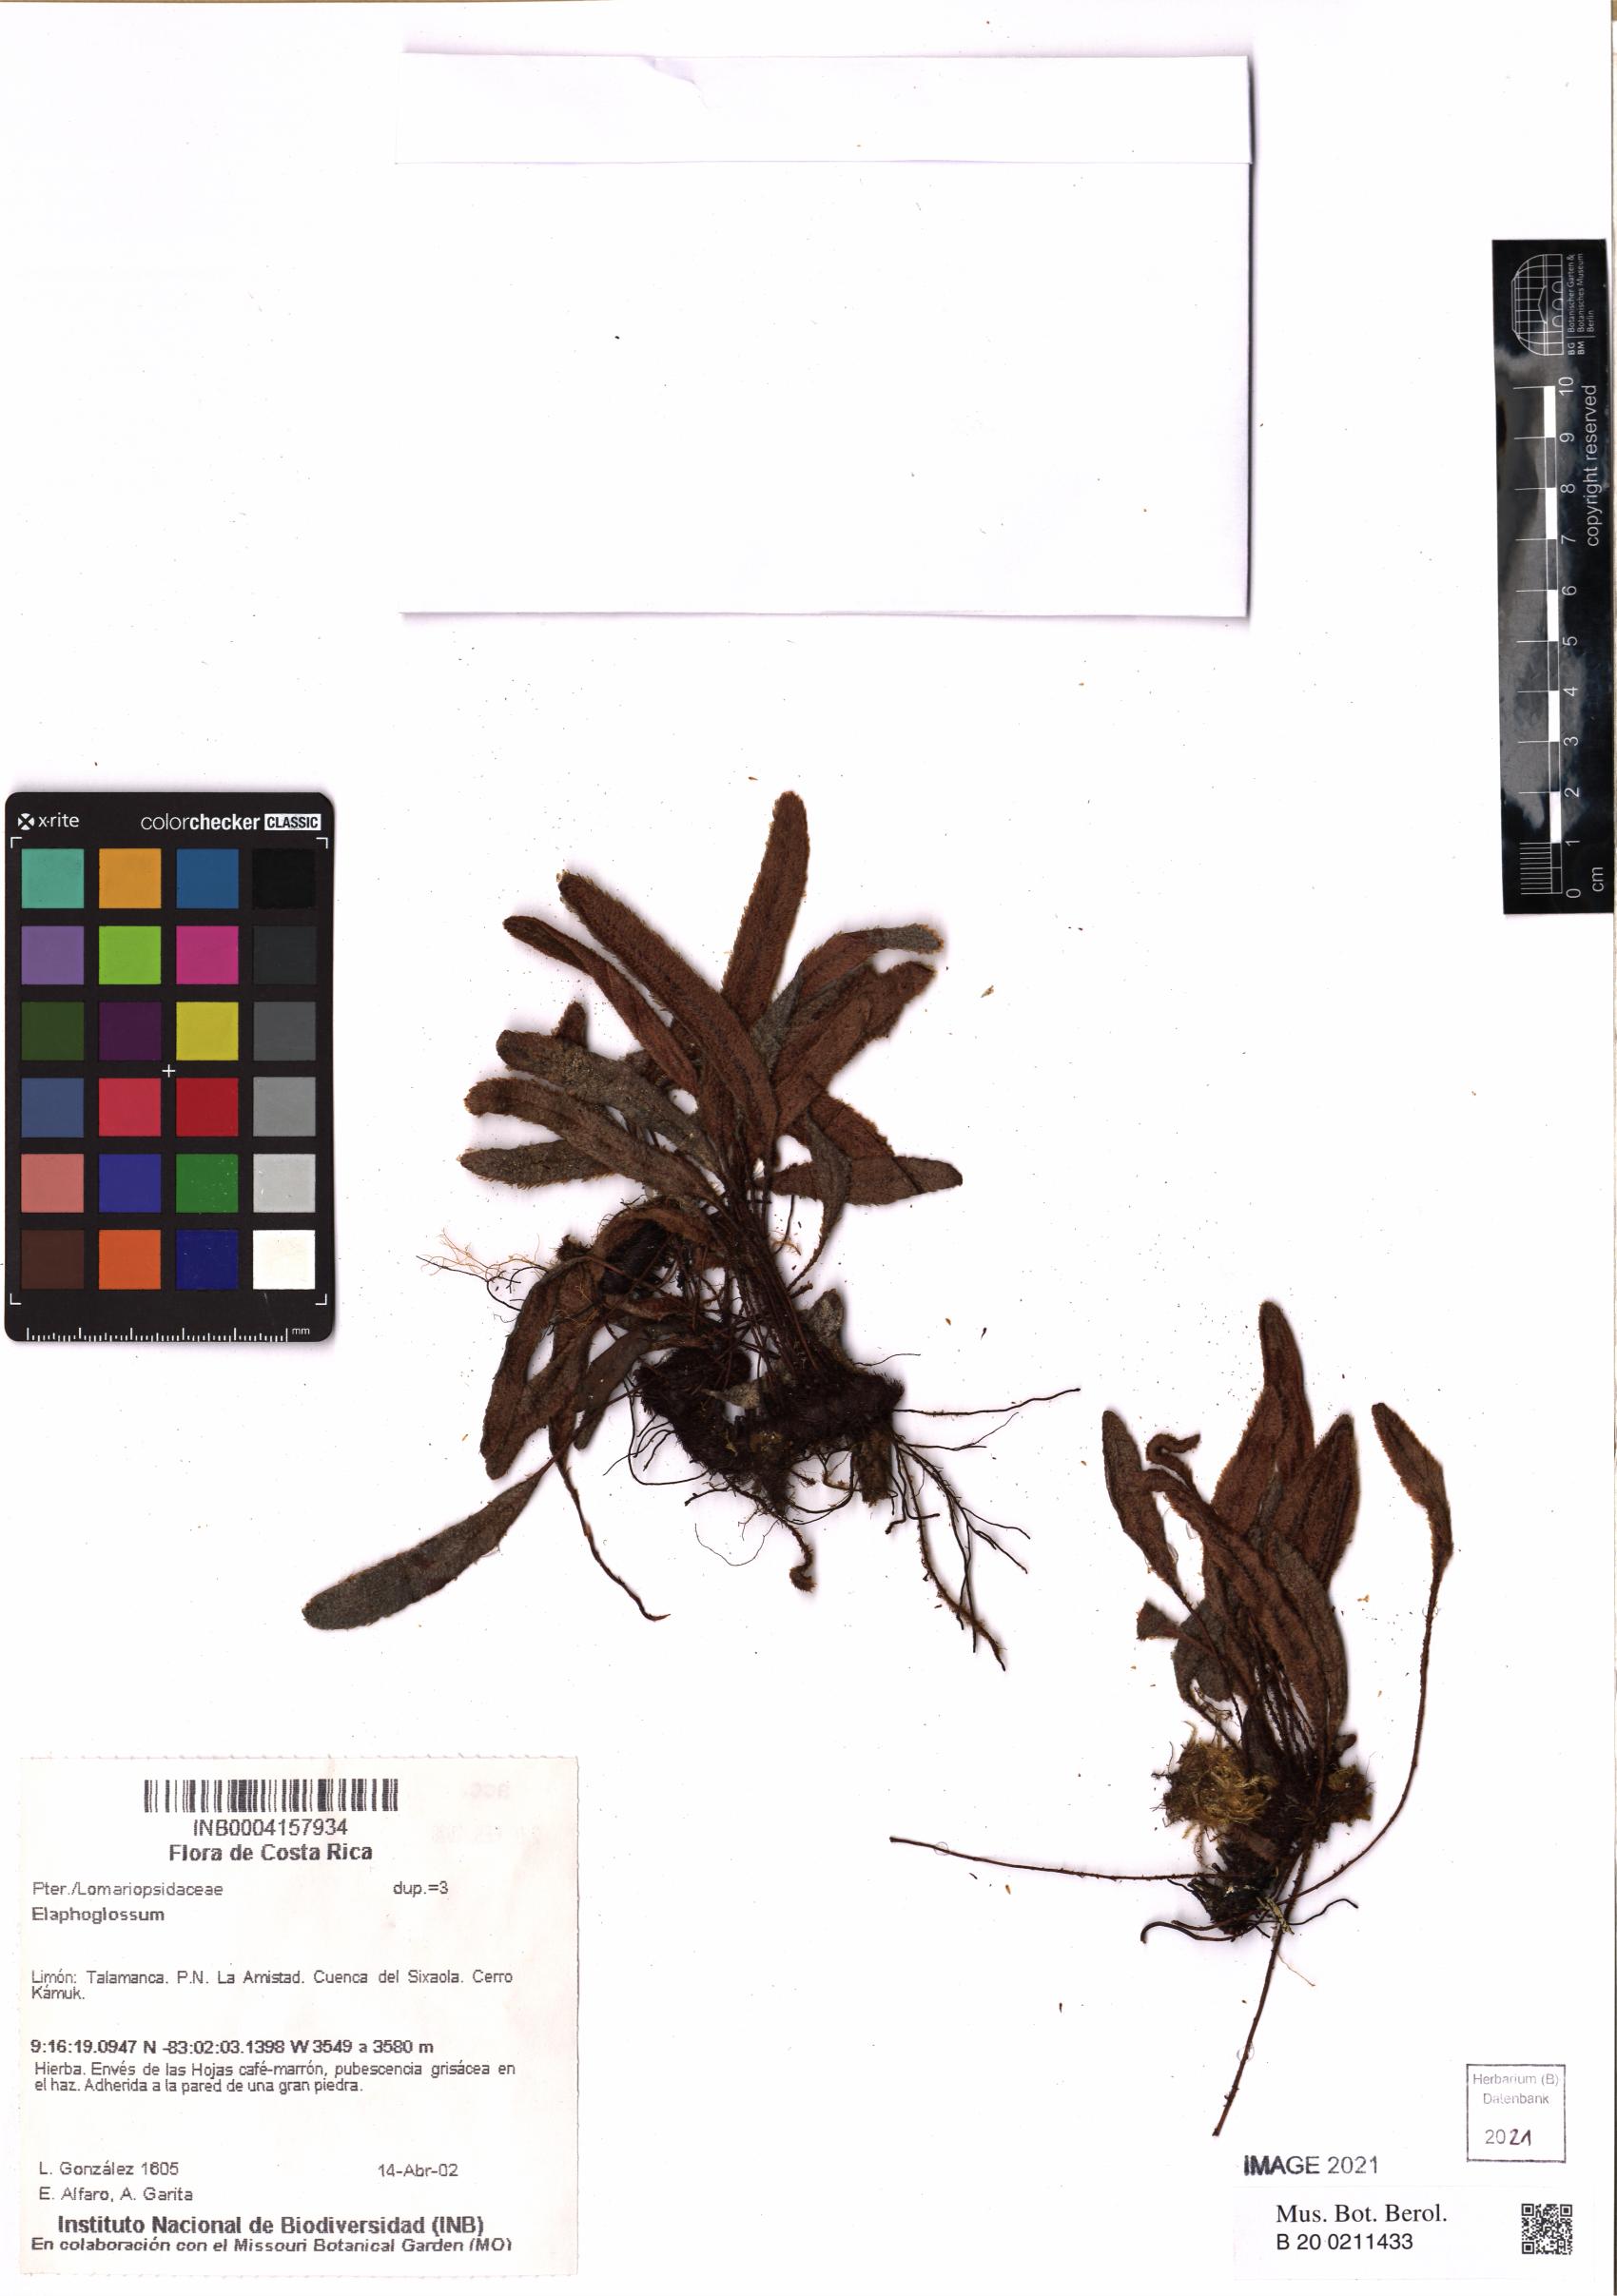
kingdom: Plantae
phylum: Tracheophyta
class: Polypodiopsida
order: Polypodiales
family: Dryopteridaceae
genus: Elaphoglossum
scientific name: Elaphoglossum
